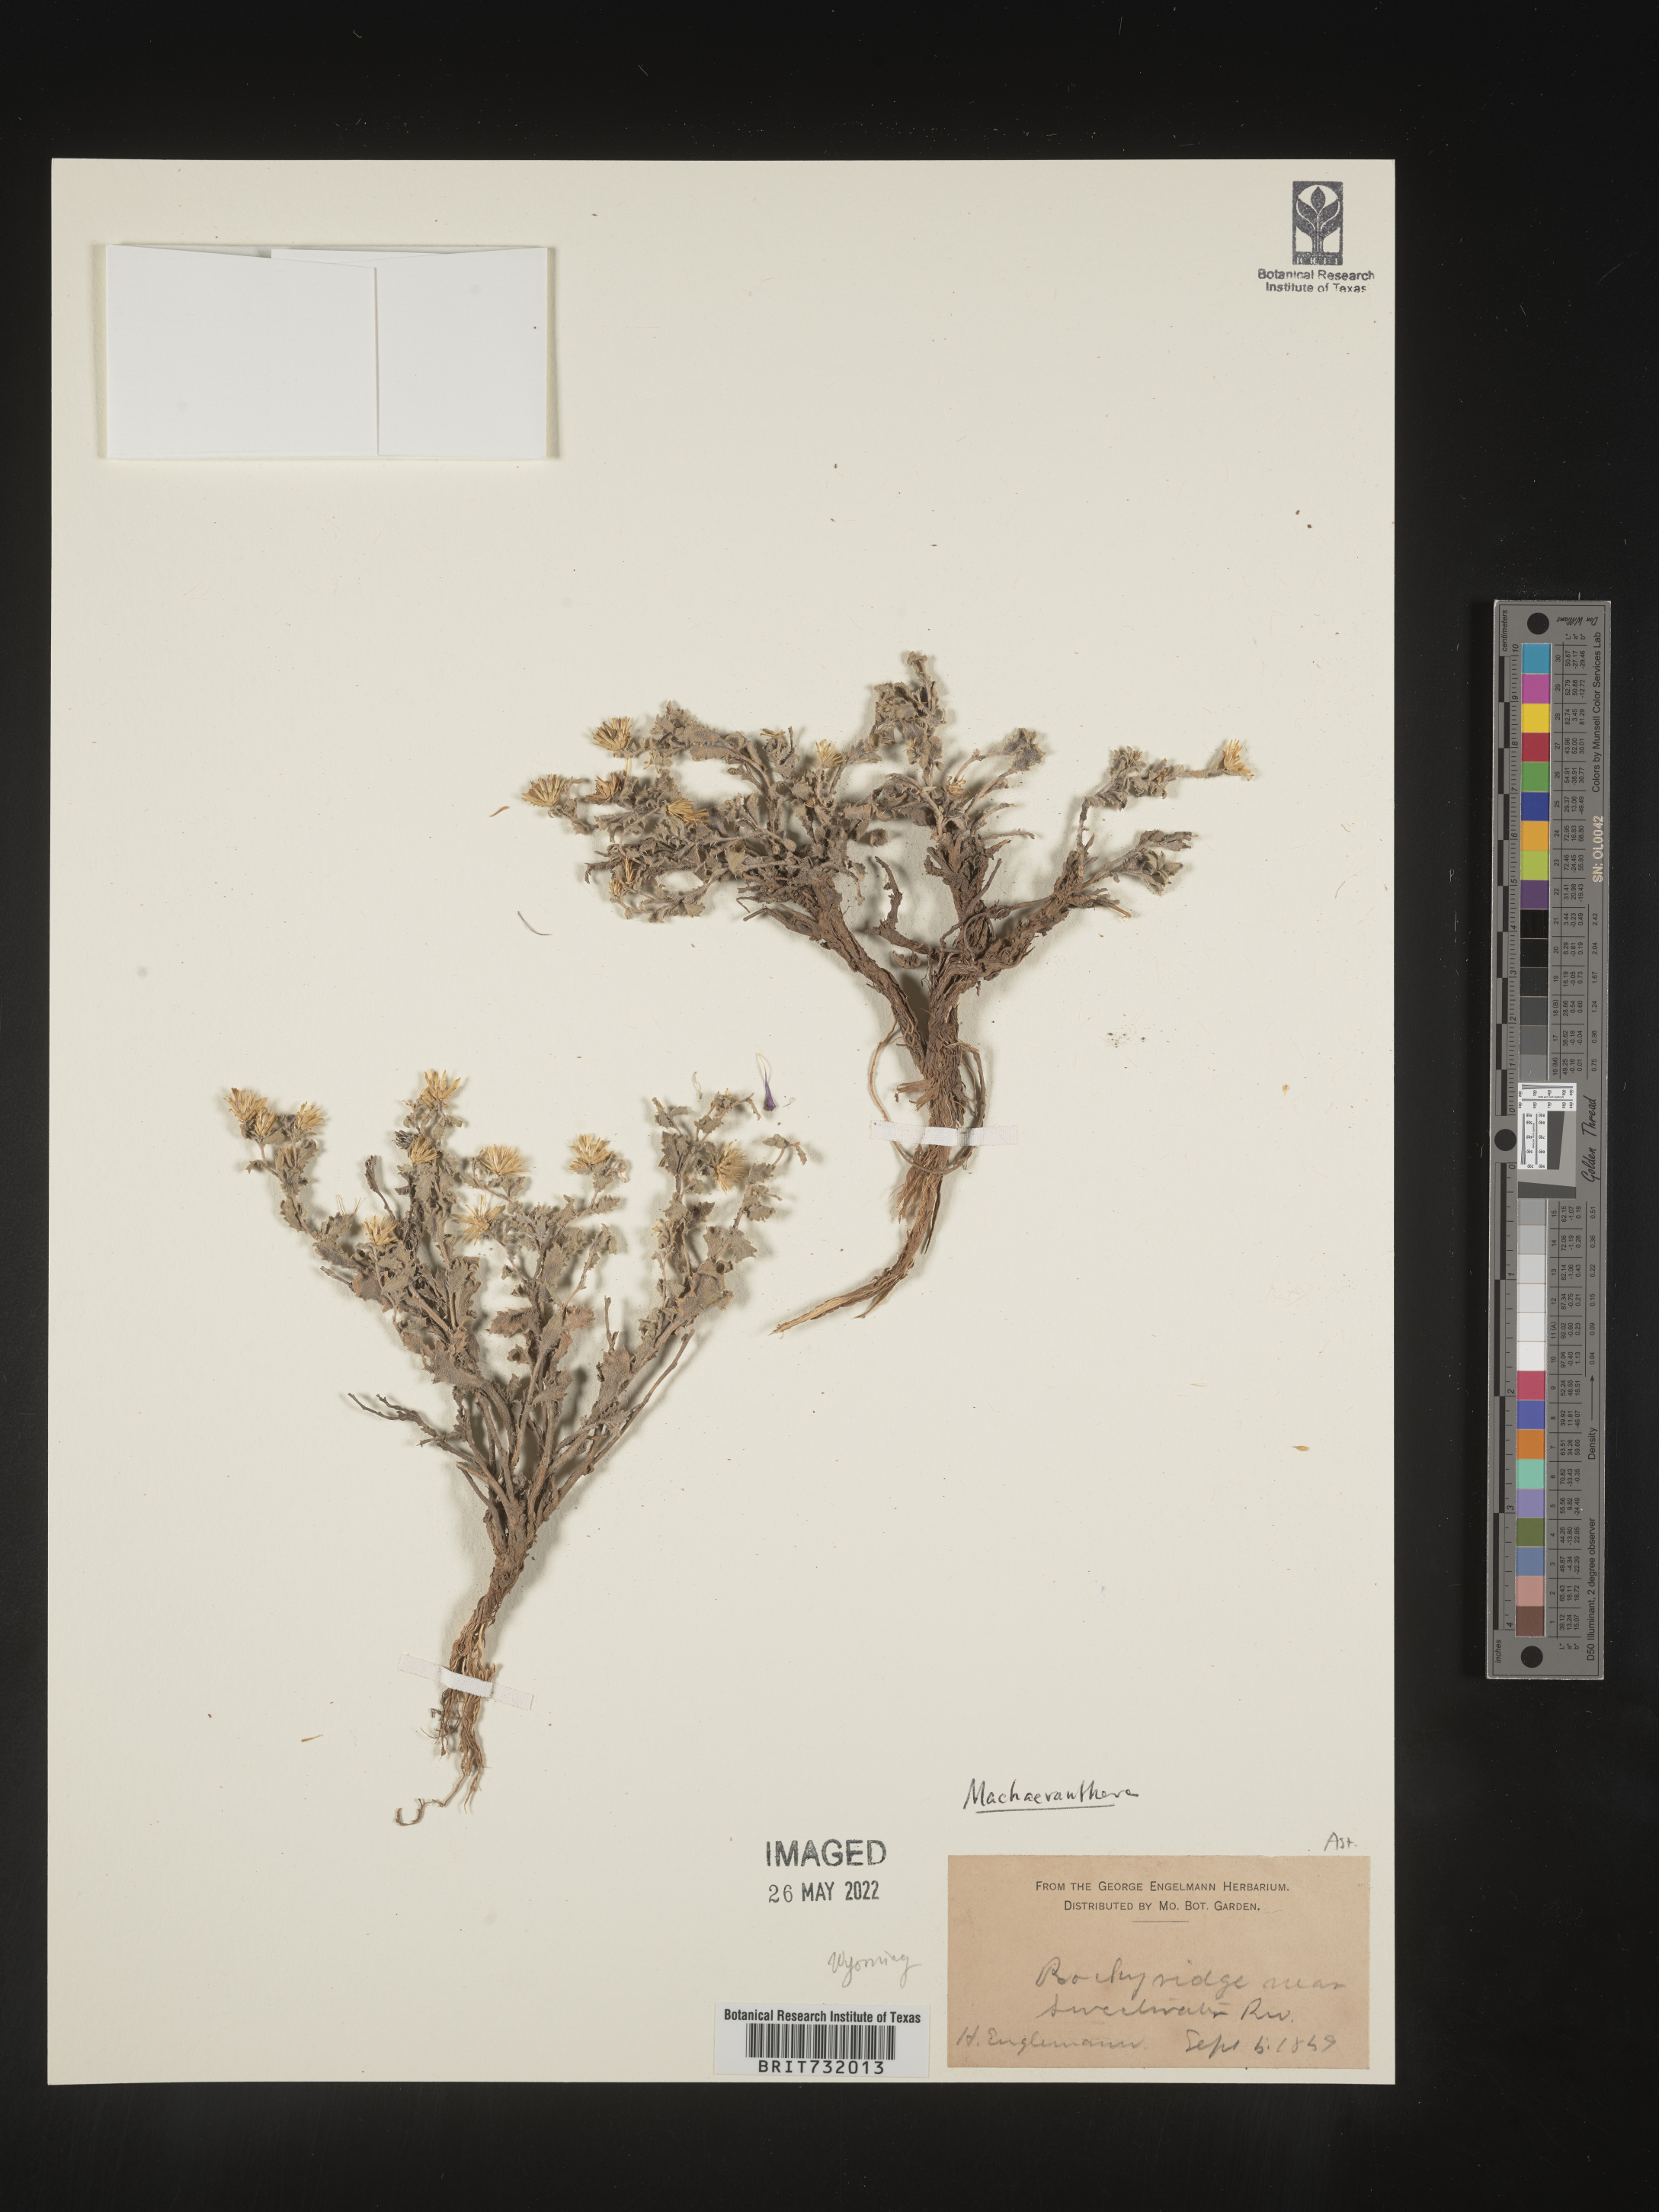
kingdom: Plantae
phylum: Tracheophyta
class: Magnoliopsida
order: Asterales
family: Asteraceae
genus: Machaeranthera
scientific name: Machaeranthera
